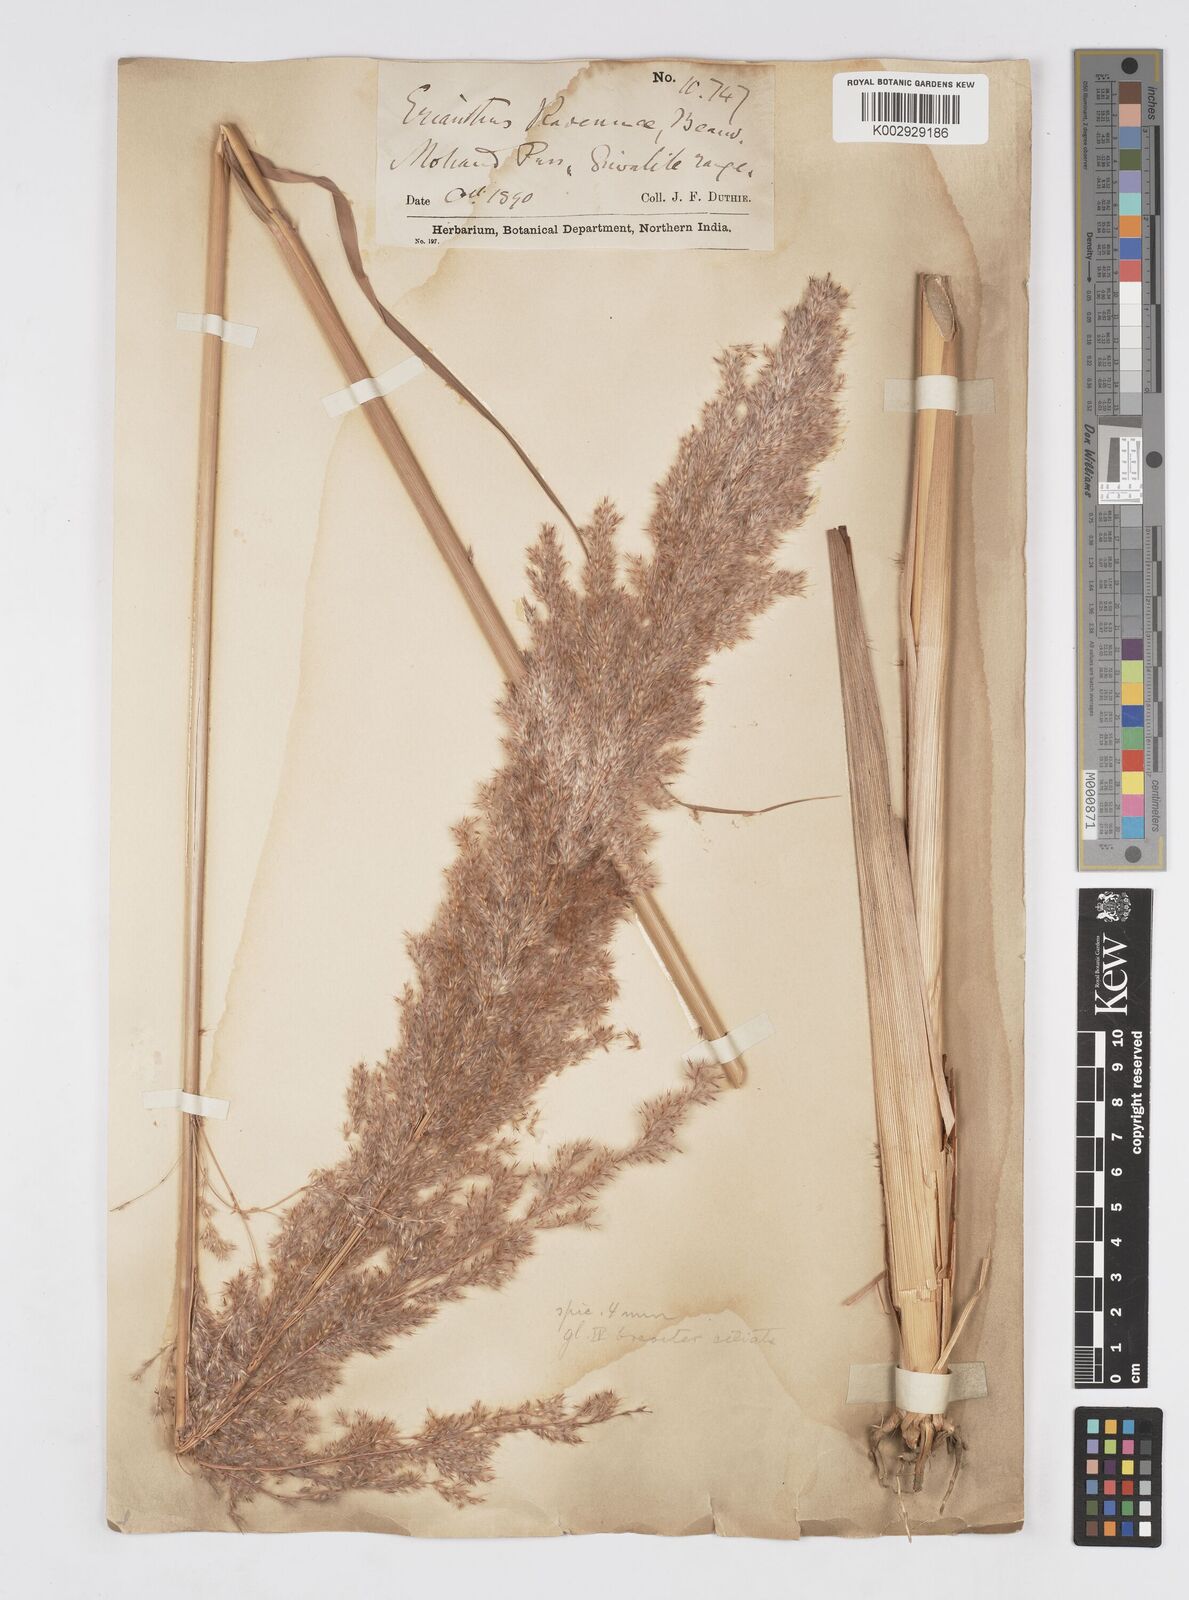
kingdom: Plantae
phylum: Tracheophyta
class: Liliopsida
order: Poales
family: Poaceae
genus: Tripidium
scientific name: Tripidium ravennae
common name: Ravenna grass
